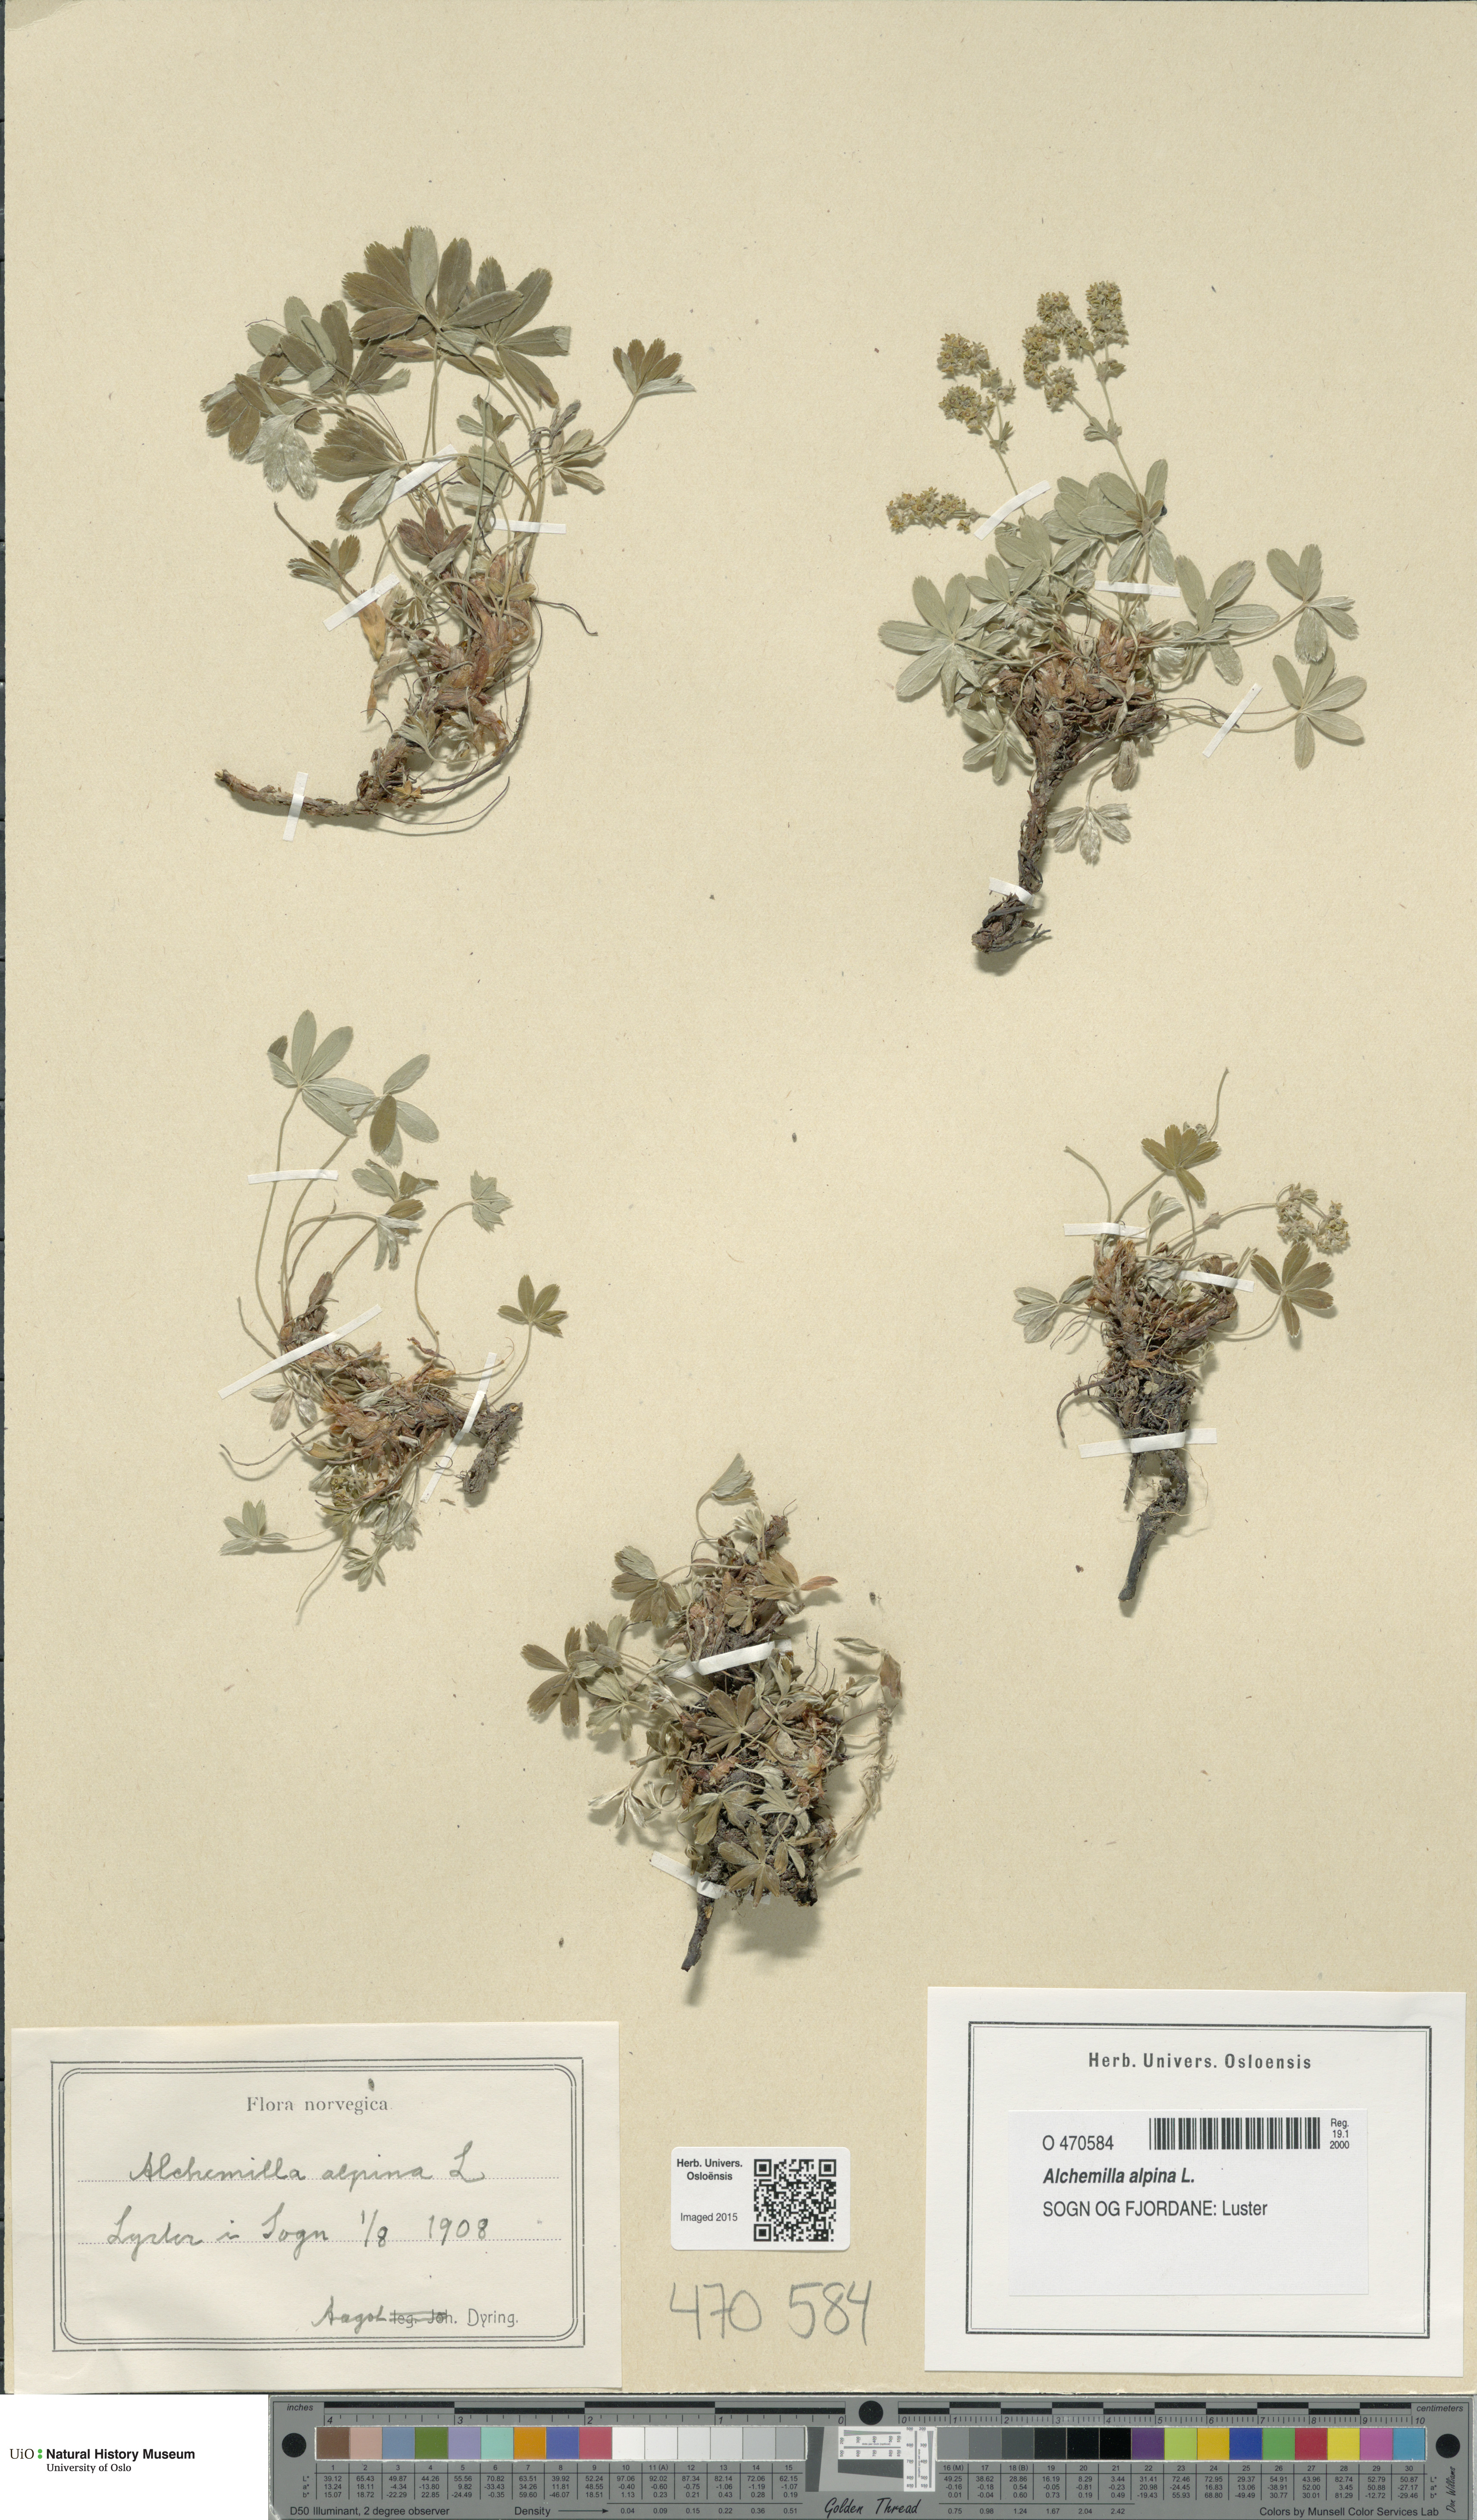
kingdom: Plantae
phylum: Tracheophyta
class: Magnoliopsida
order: Rosales
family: Rosaceae
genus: Alchemilla
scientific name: Alchemilla alpina
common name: Alpine lady's-mantle
